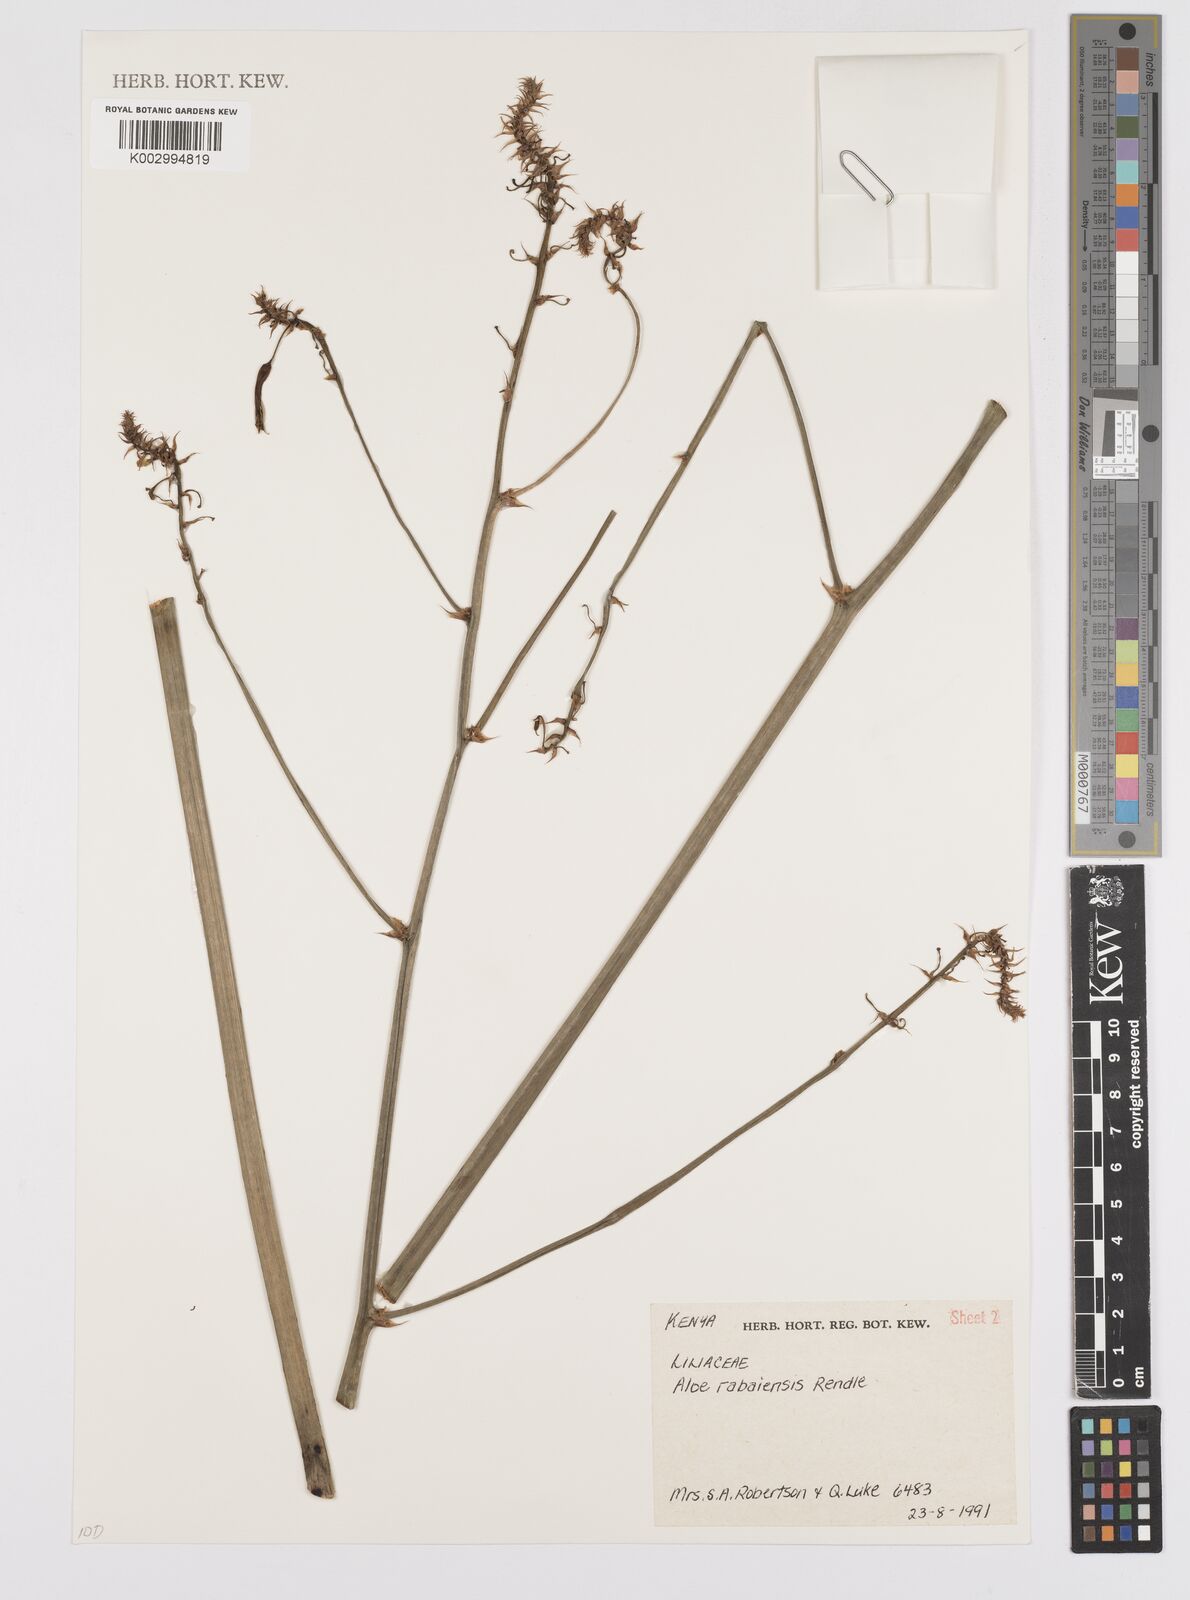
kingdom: Plantae
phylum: Tracheophyta
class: Liliopsida
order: Asparagales
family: Asphodelaceae
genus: Aloe
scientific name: Aloe rabaiensis
